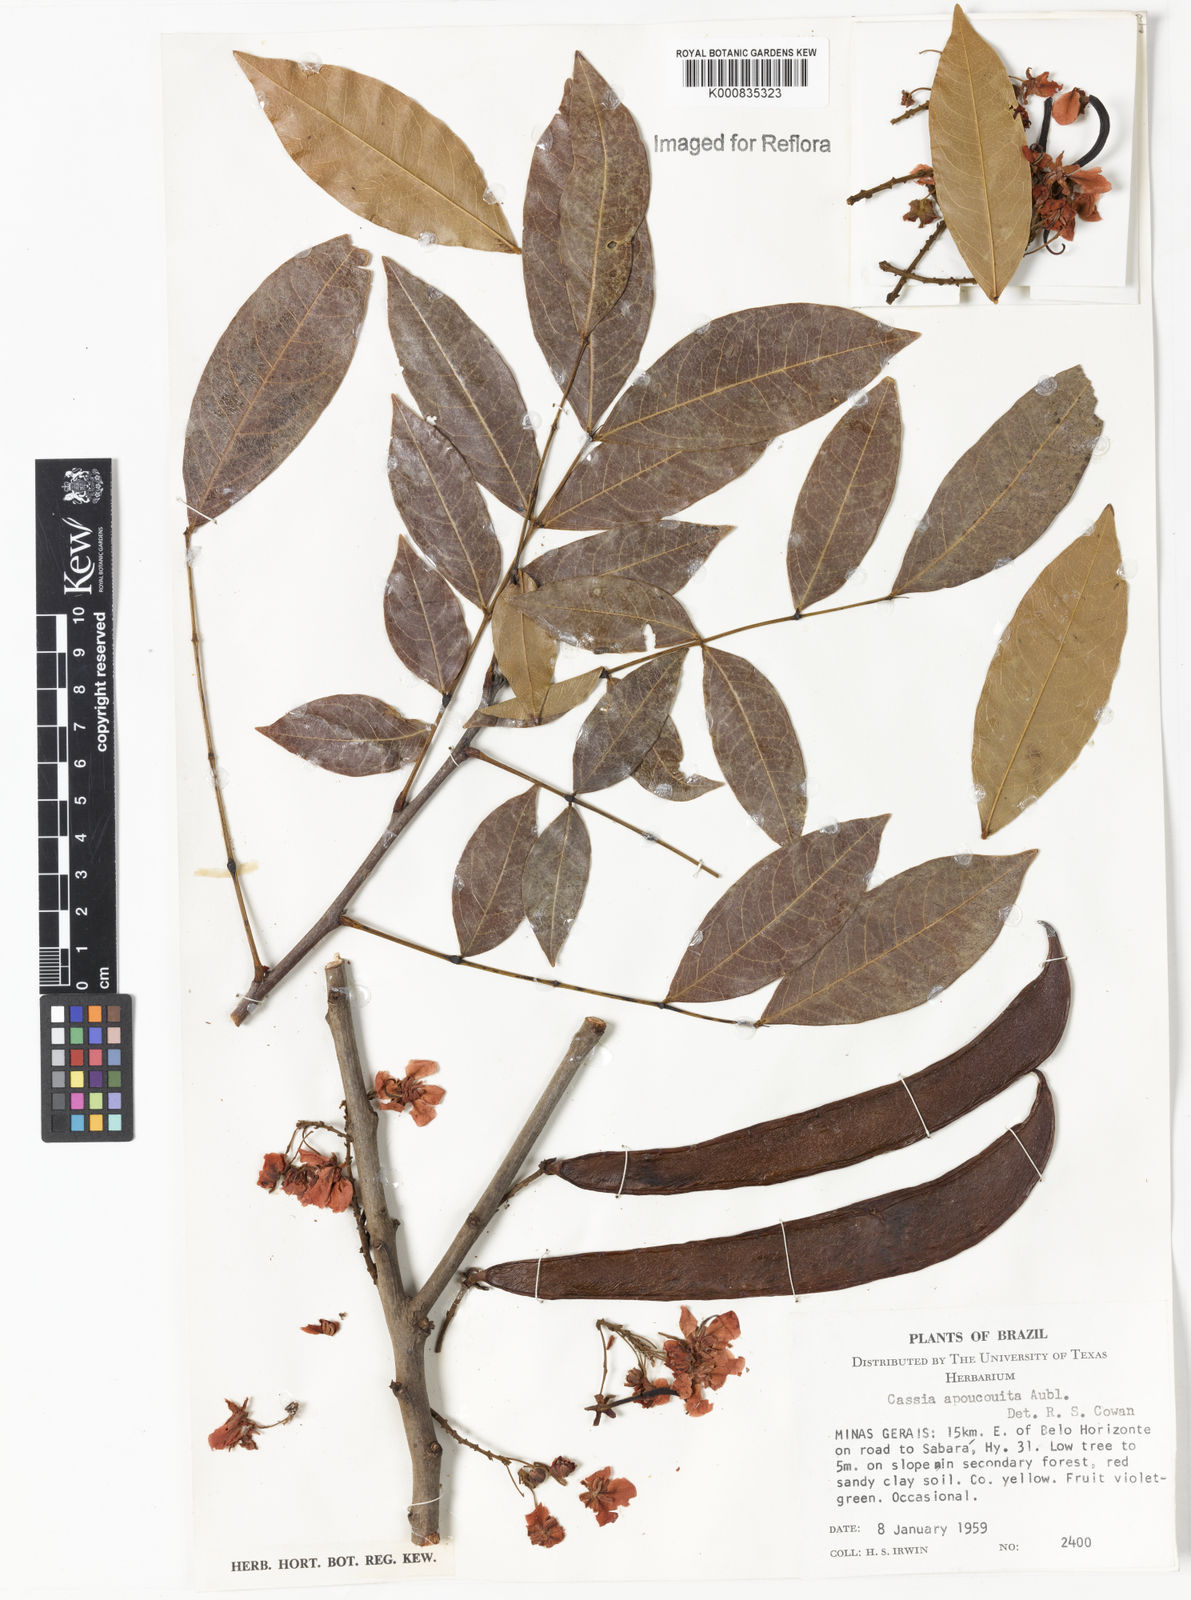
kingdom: Plantae
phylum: Tracheophyta
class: Magnoliopsida
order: Fabales
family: Fabaceae
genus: Chamaecrista
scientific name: Chamaecrista apoucouita
